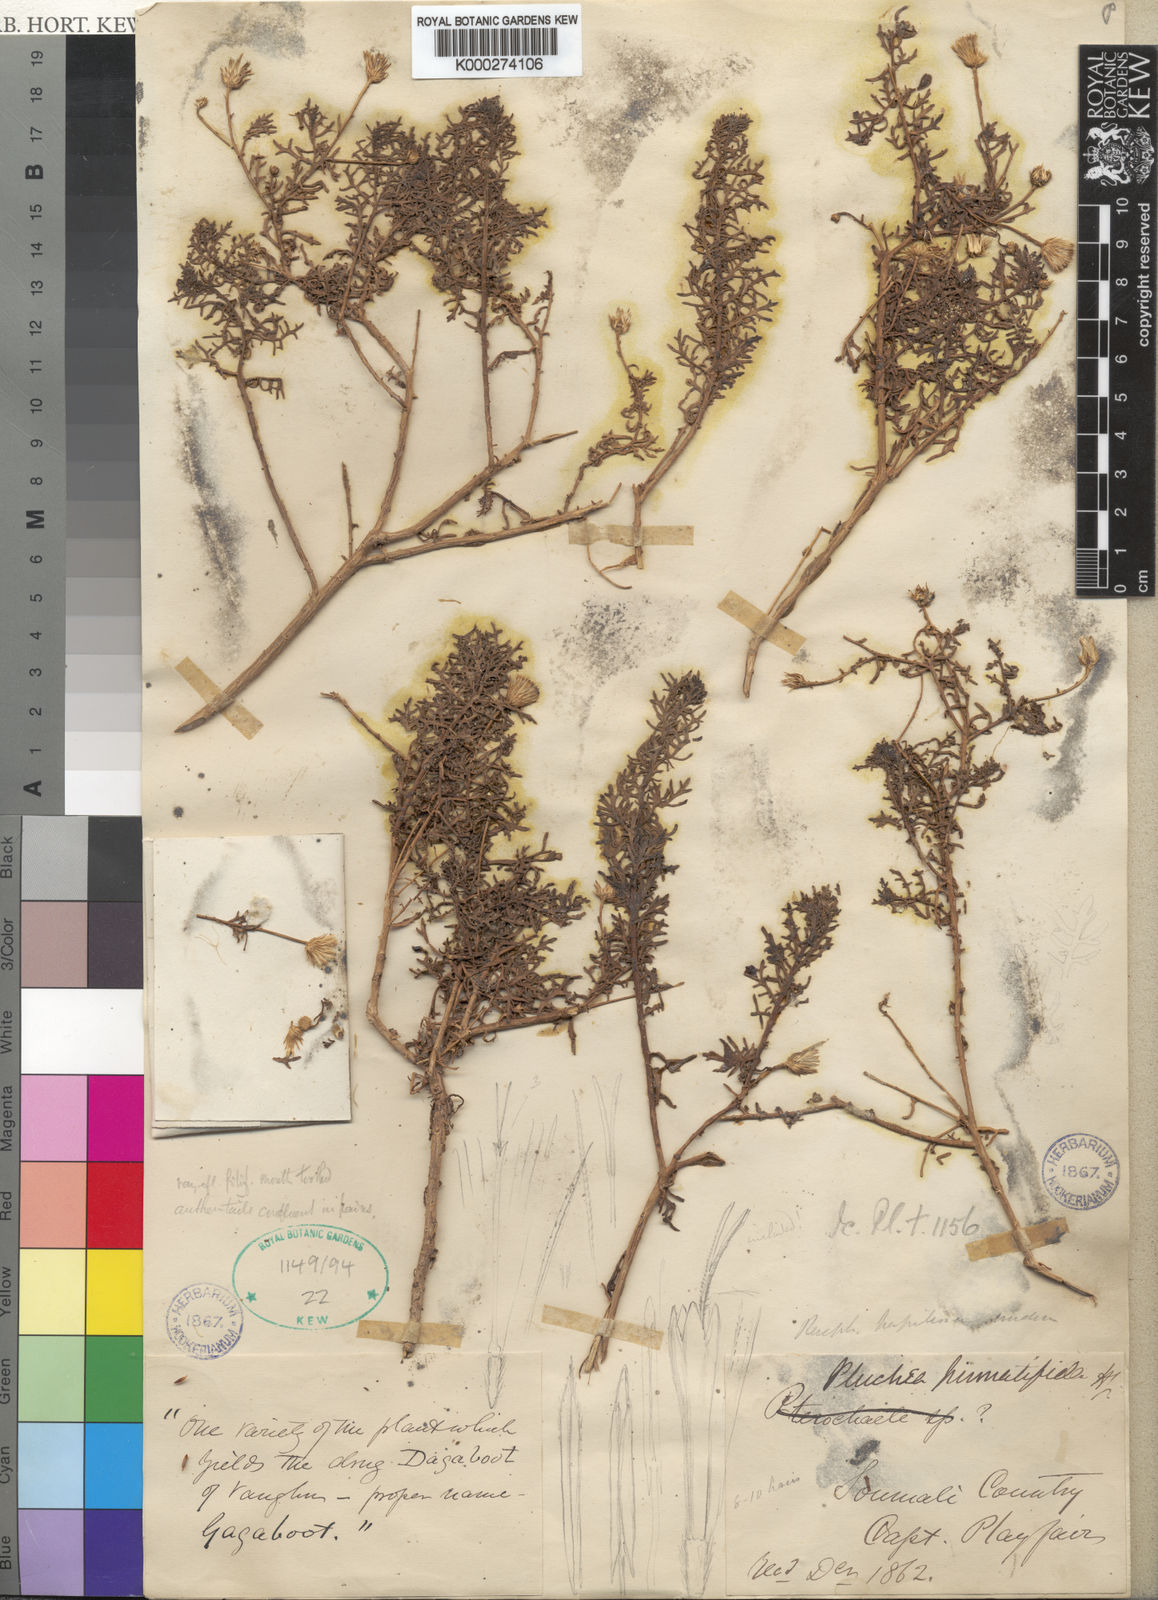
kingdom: Plantae
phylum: Tracheophyta
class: Magnoliopsida
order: Asterales
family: Asteraceae
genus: Pluchea
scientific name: Pluchea arabica
